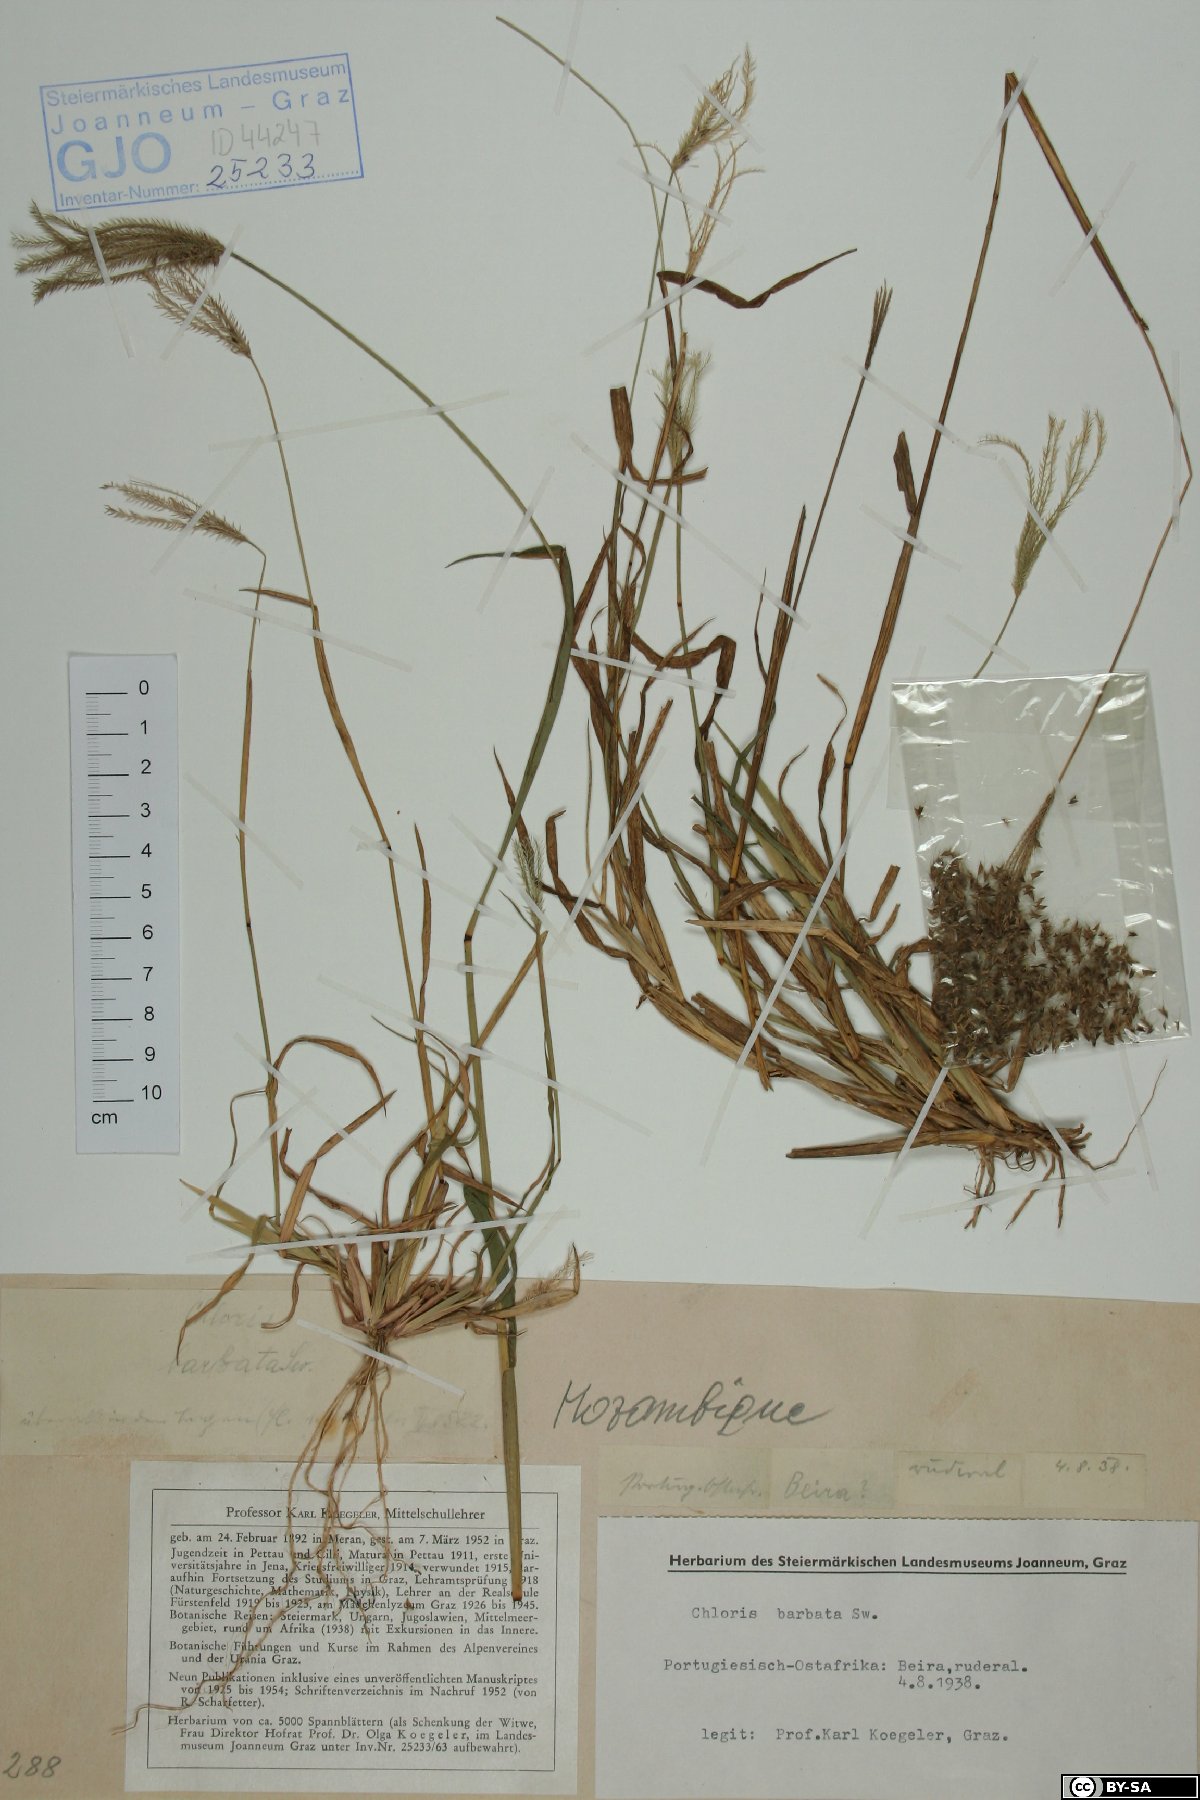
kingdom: Plantae
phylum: Tracheophyta
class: Liliopsida
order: Poales
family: Poaceae
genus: Chloris
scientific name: Chloris barbata
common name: Swollen fingergrass
